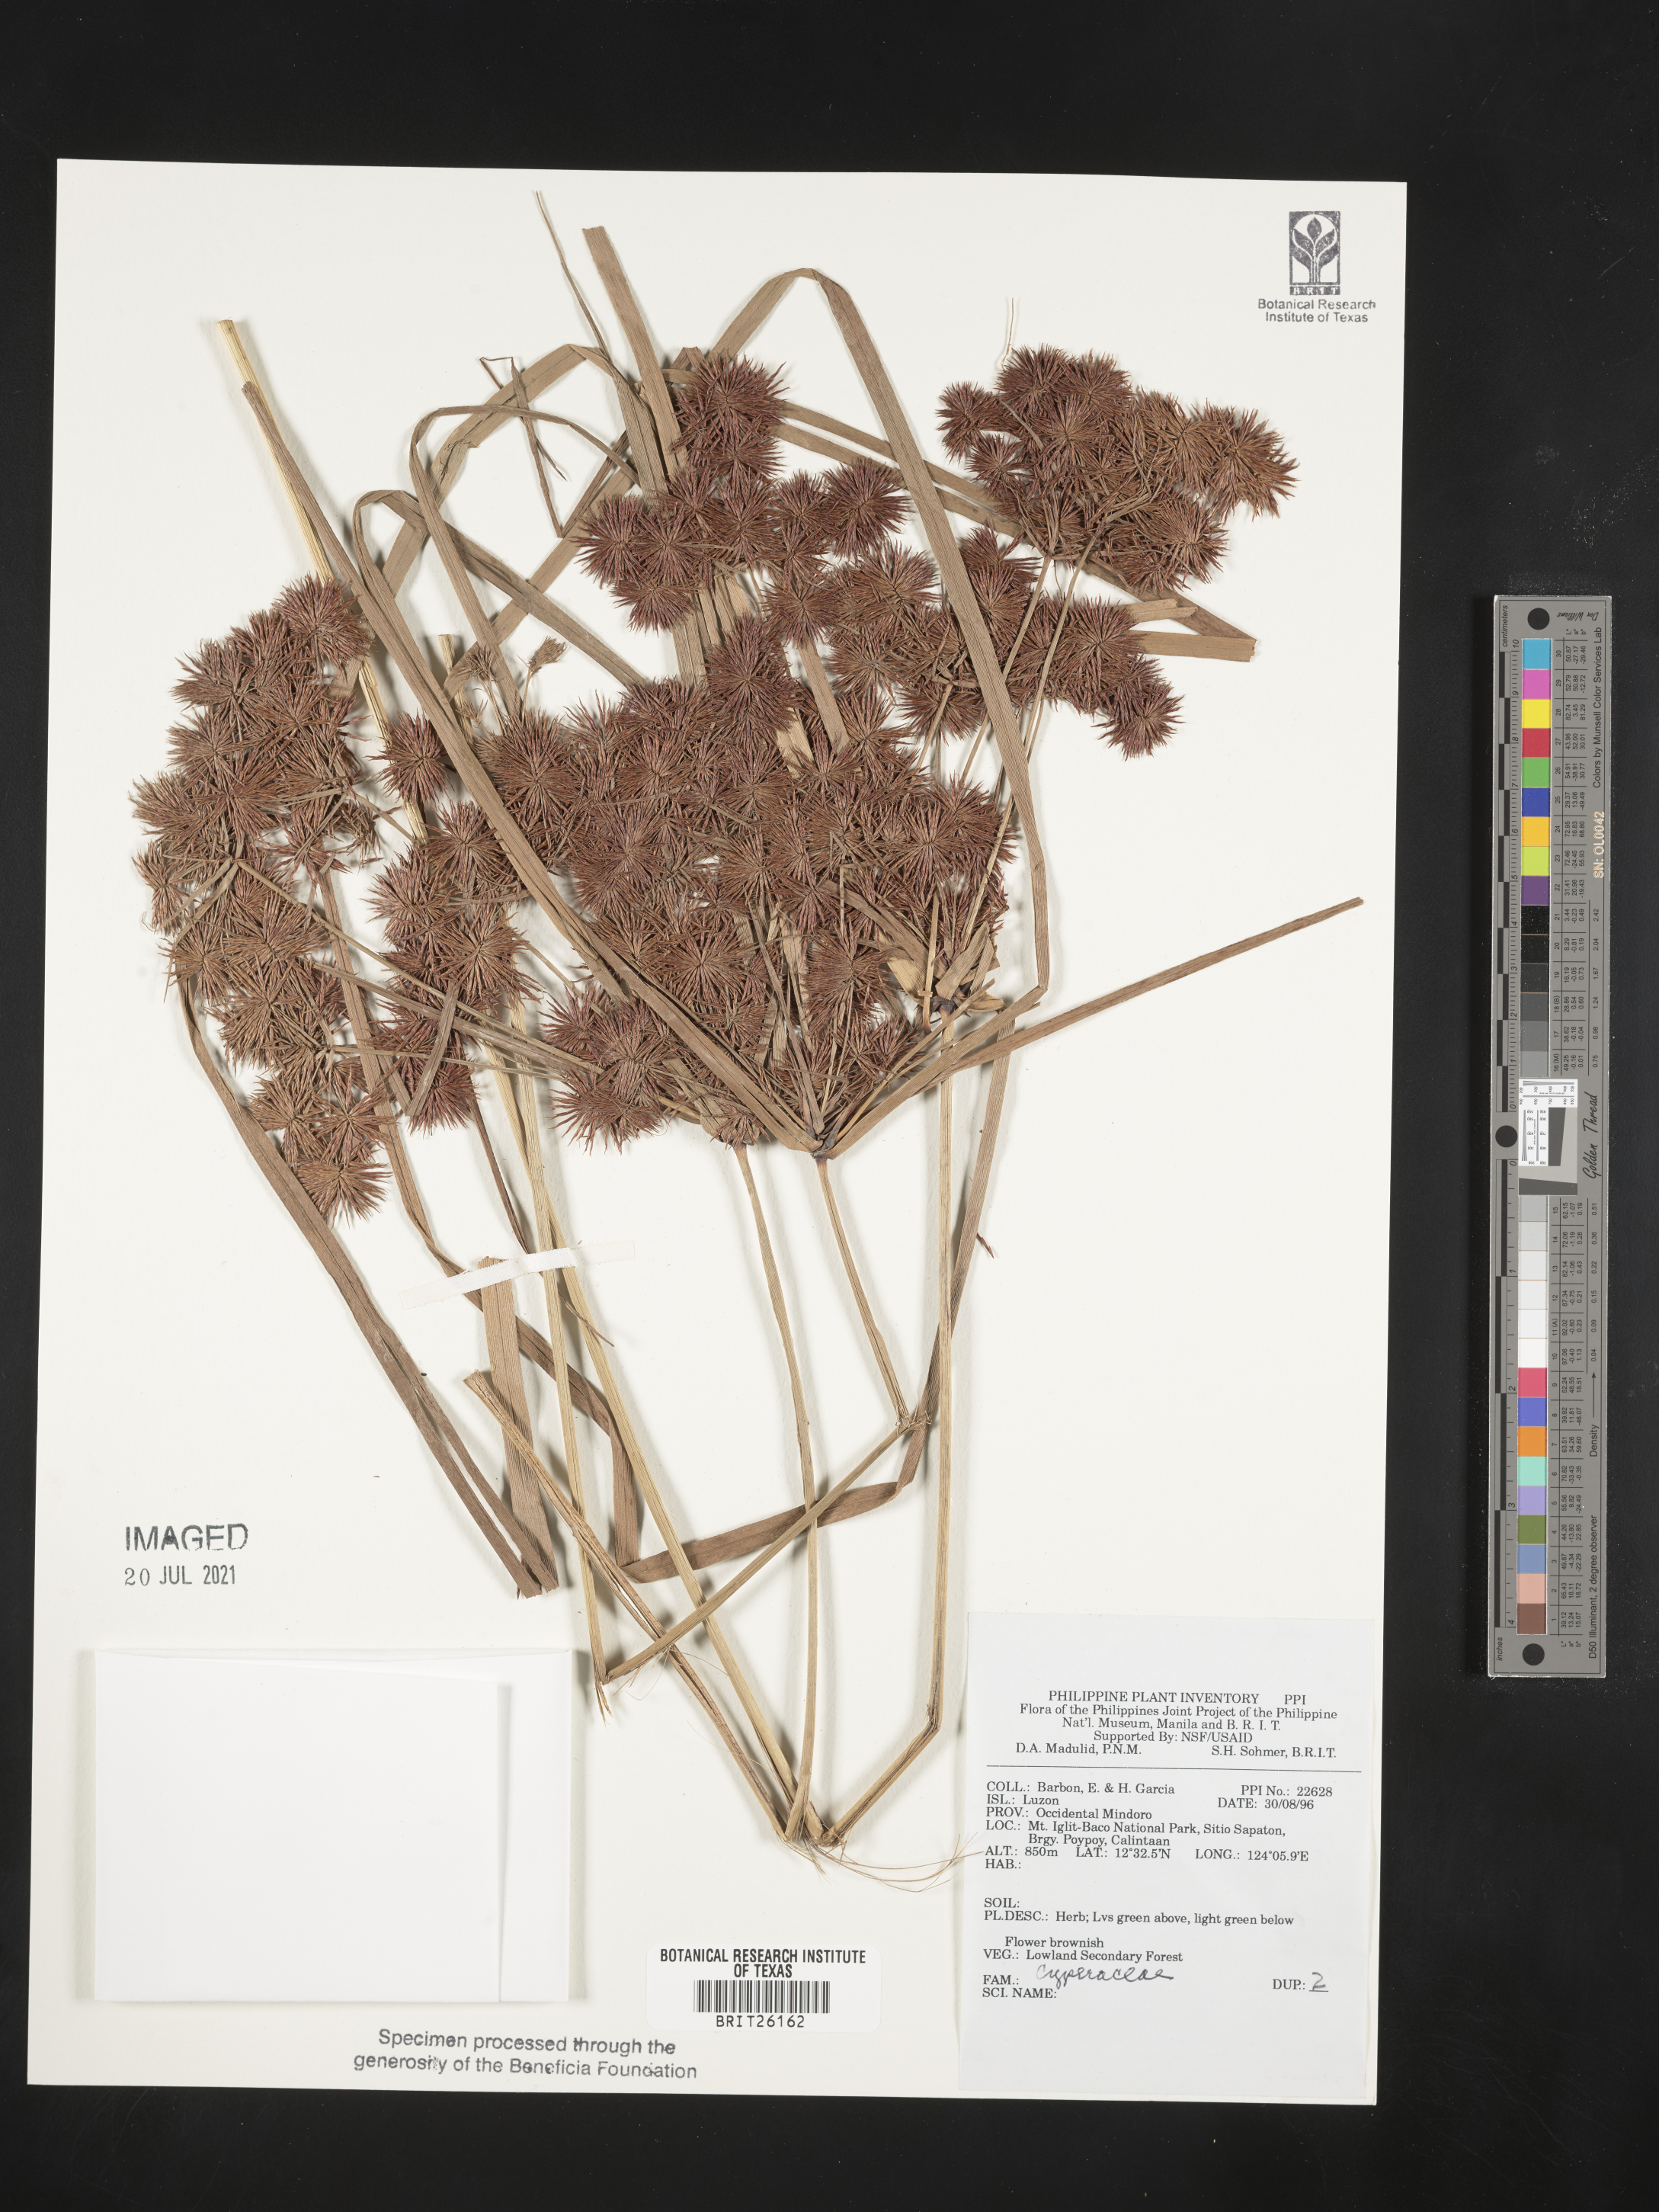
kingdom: Plantae
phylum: Tracheophyta
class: Liliopsida
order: Poales
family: Cyperaceae
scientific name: Cyperaceae
